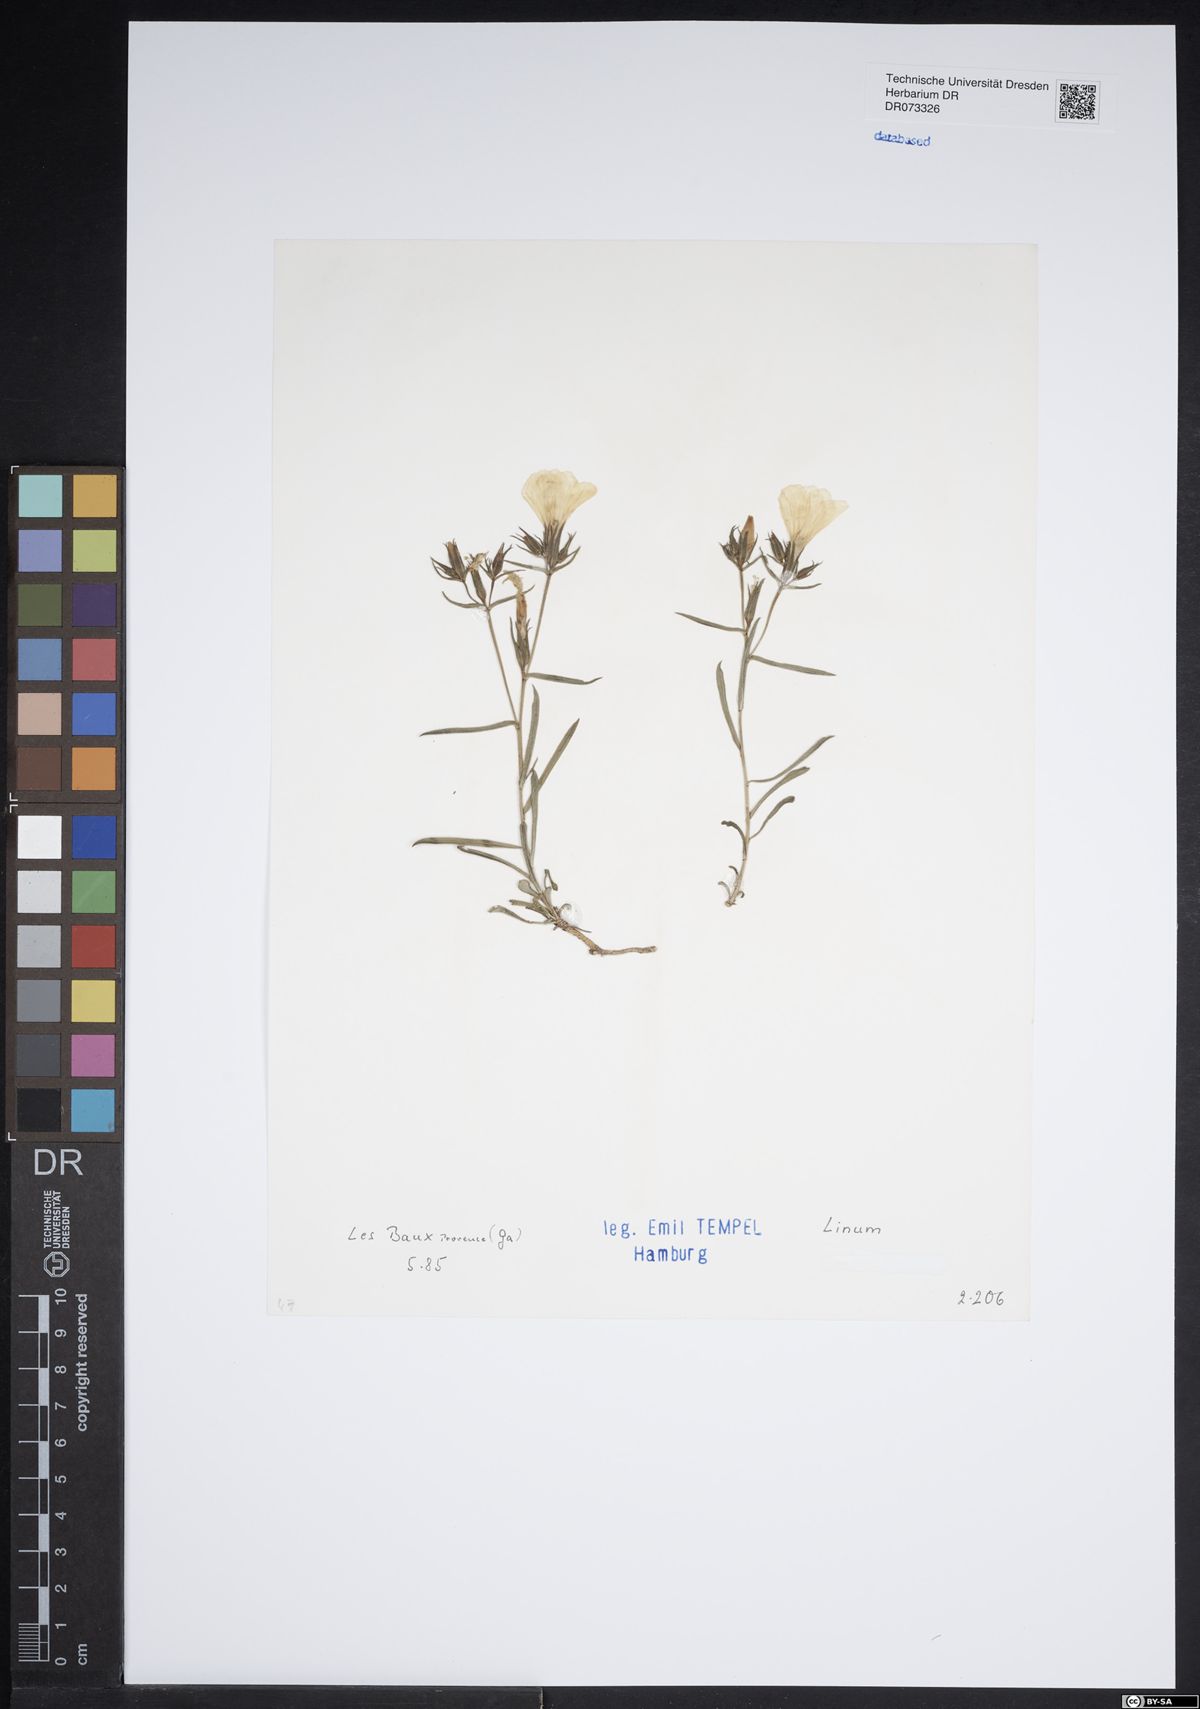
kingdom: Plantae
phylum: Tracheophyta
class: Magnoliopsida
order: Malpighiales
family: Linaceae
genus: Linum
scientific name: Linum
